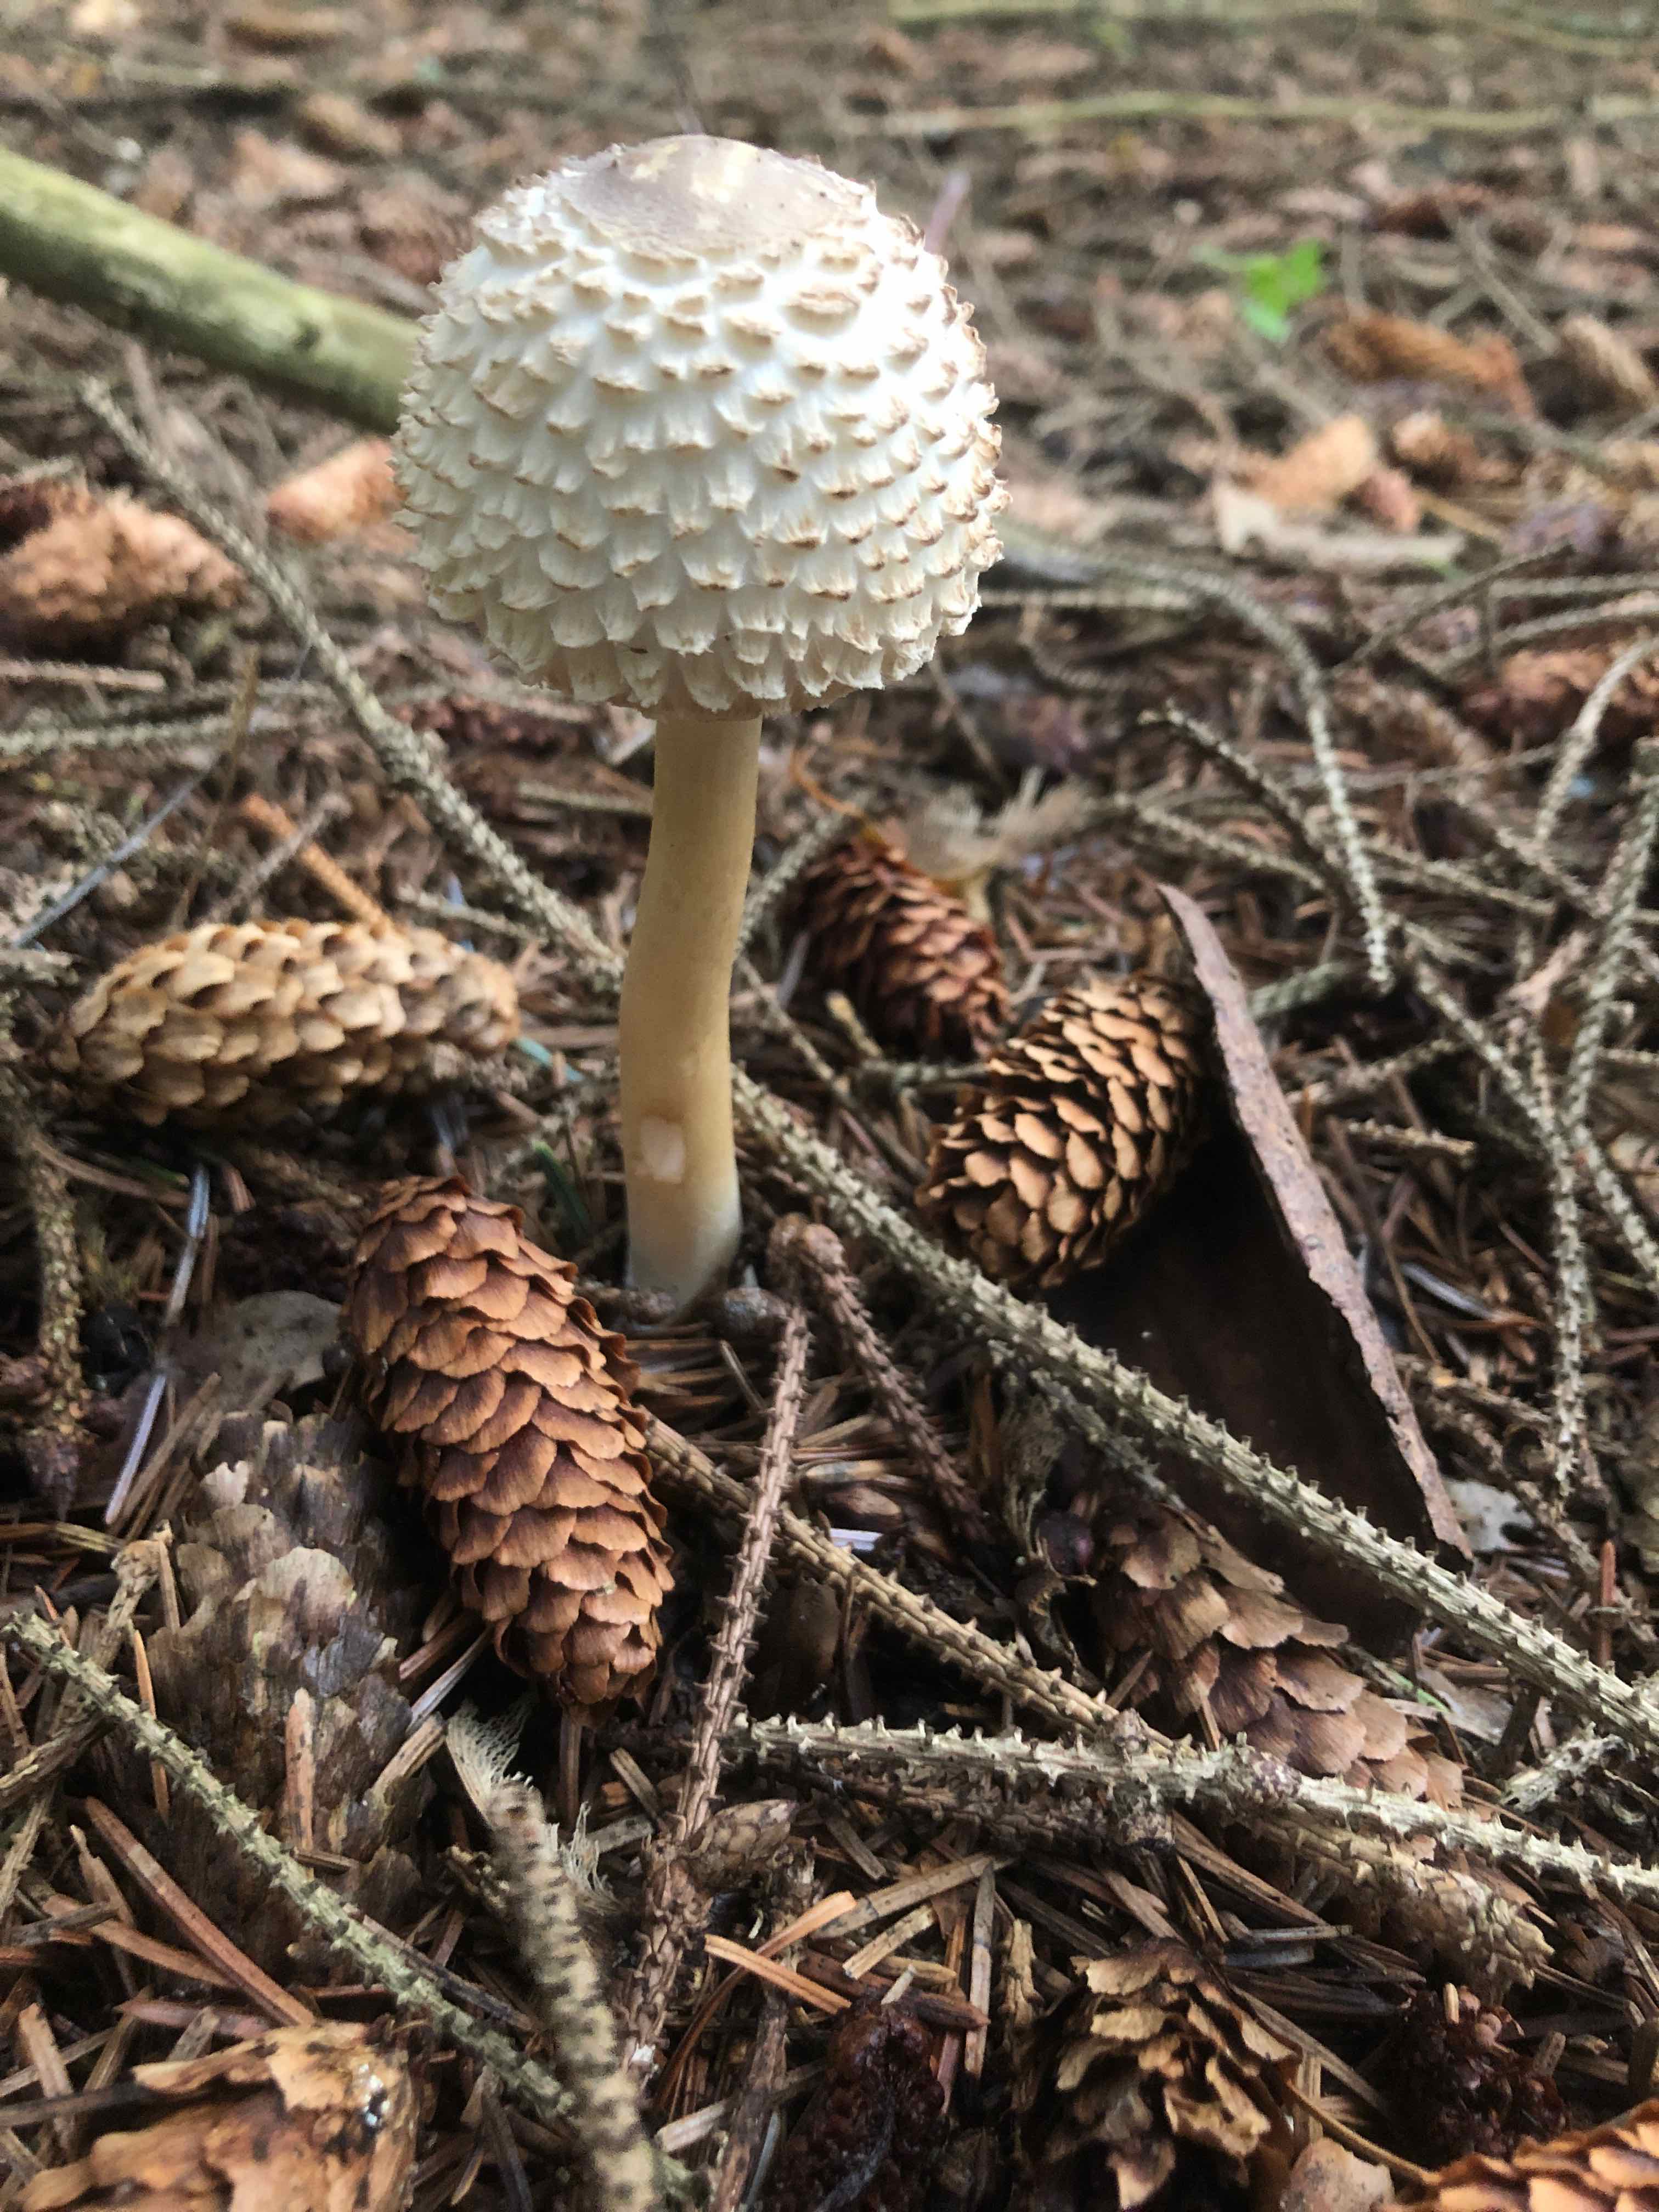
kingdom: Fungi
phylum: Basidiomycota
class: Agaricomycetes
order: Agaricales
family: Agaricaceae
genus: Leucoagaricus
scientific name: Leucoagaricus nympharum
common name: gran-silkehat
